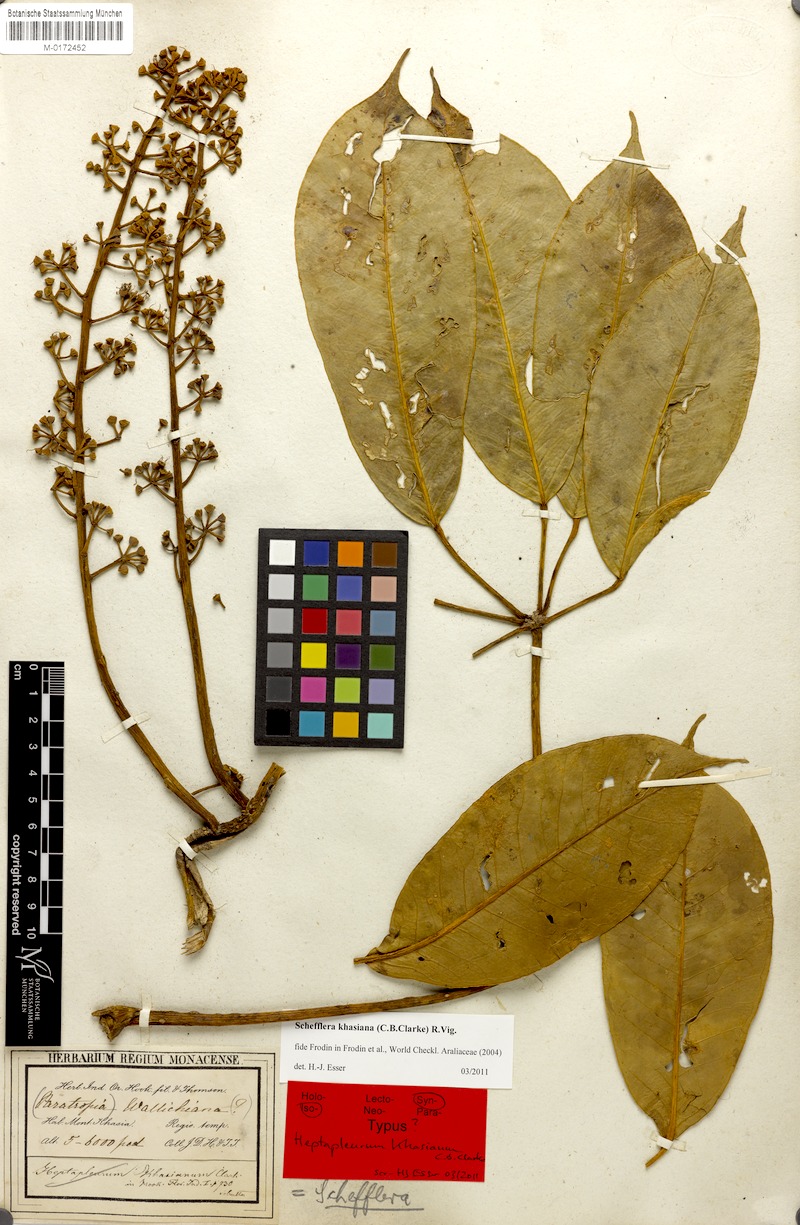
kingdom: Plantae
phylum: Tracheophyta
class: Magnoliopsida
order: Apiales
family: Araliaceae
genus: Heptapleurum
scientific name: Heptapleurum wallichianum
